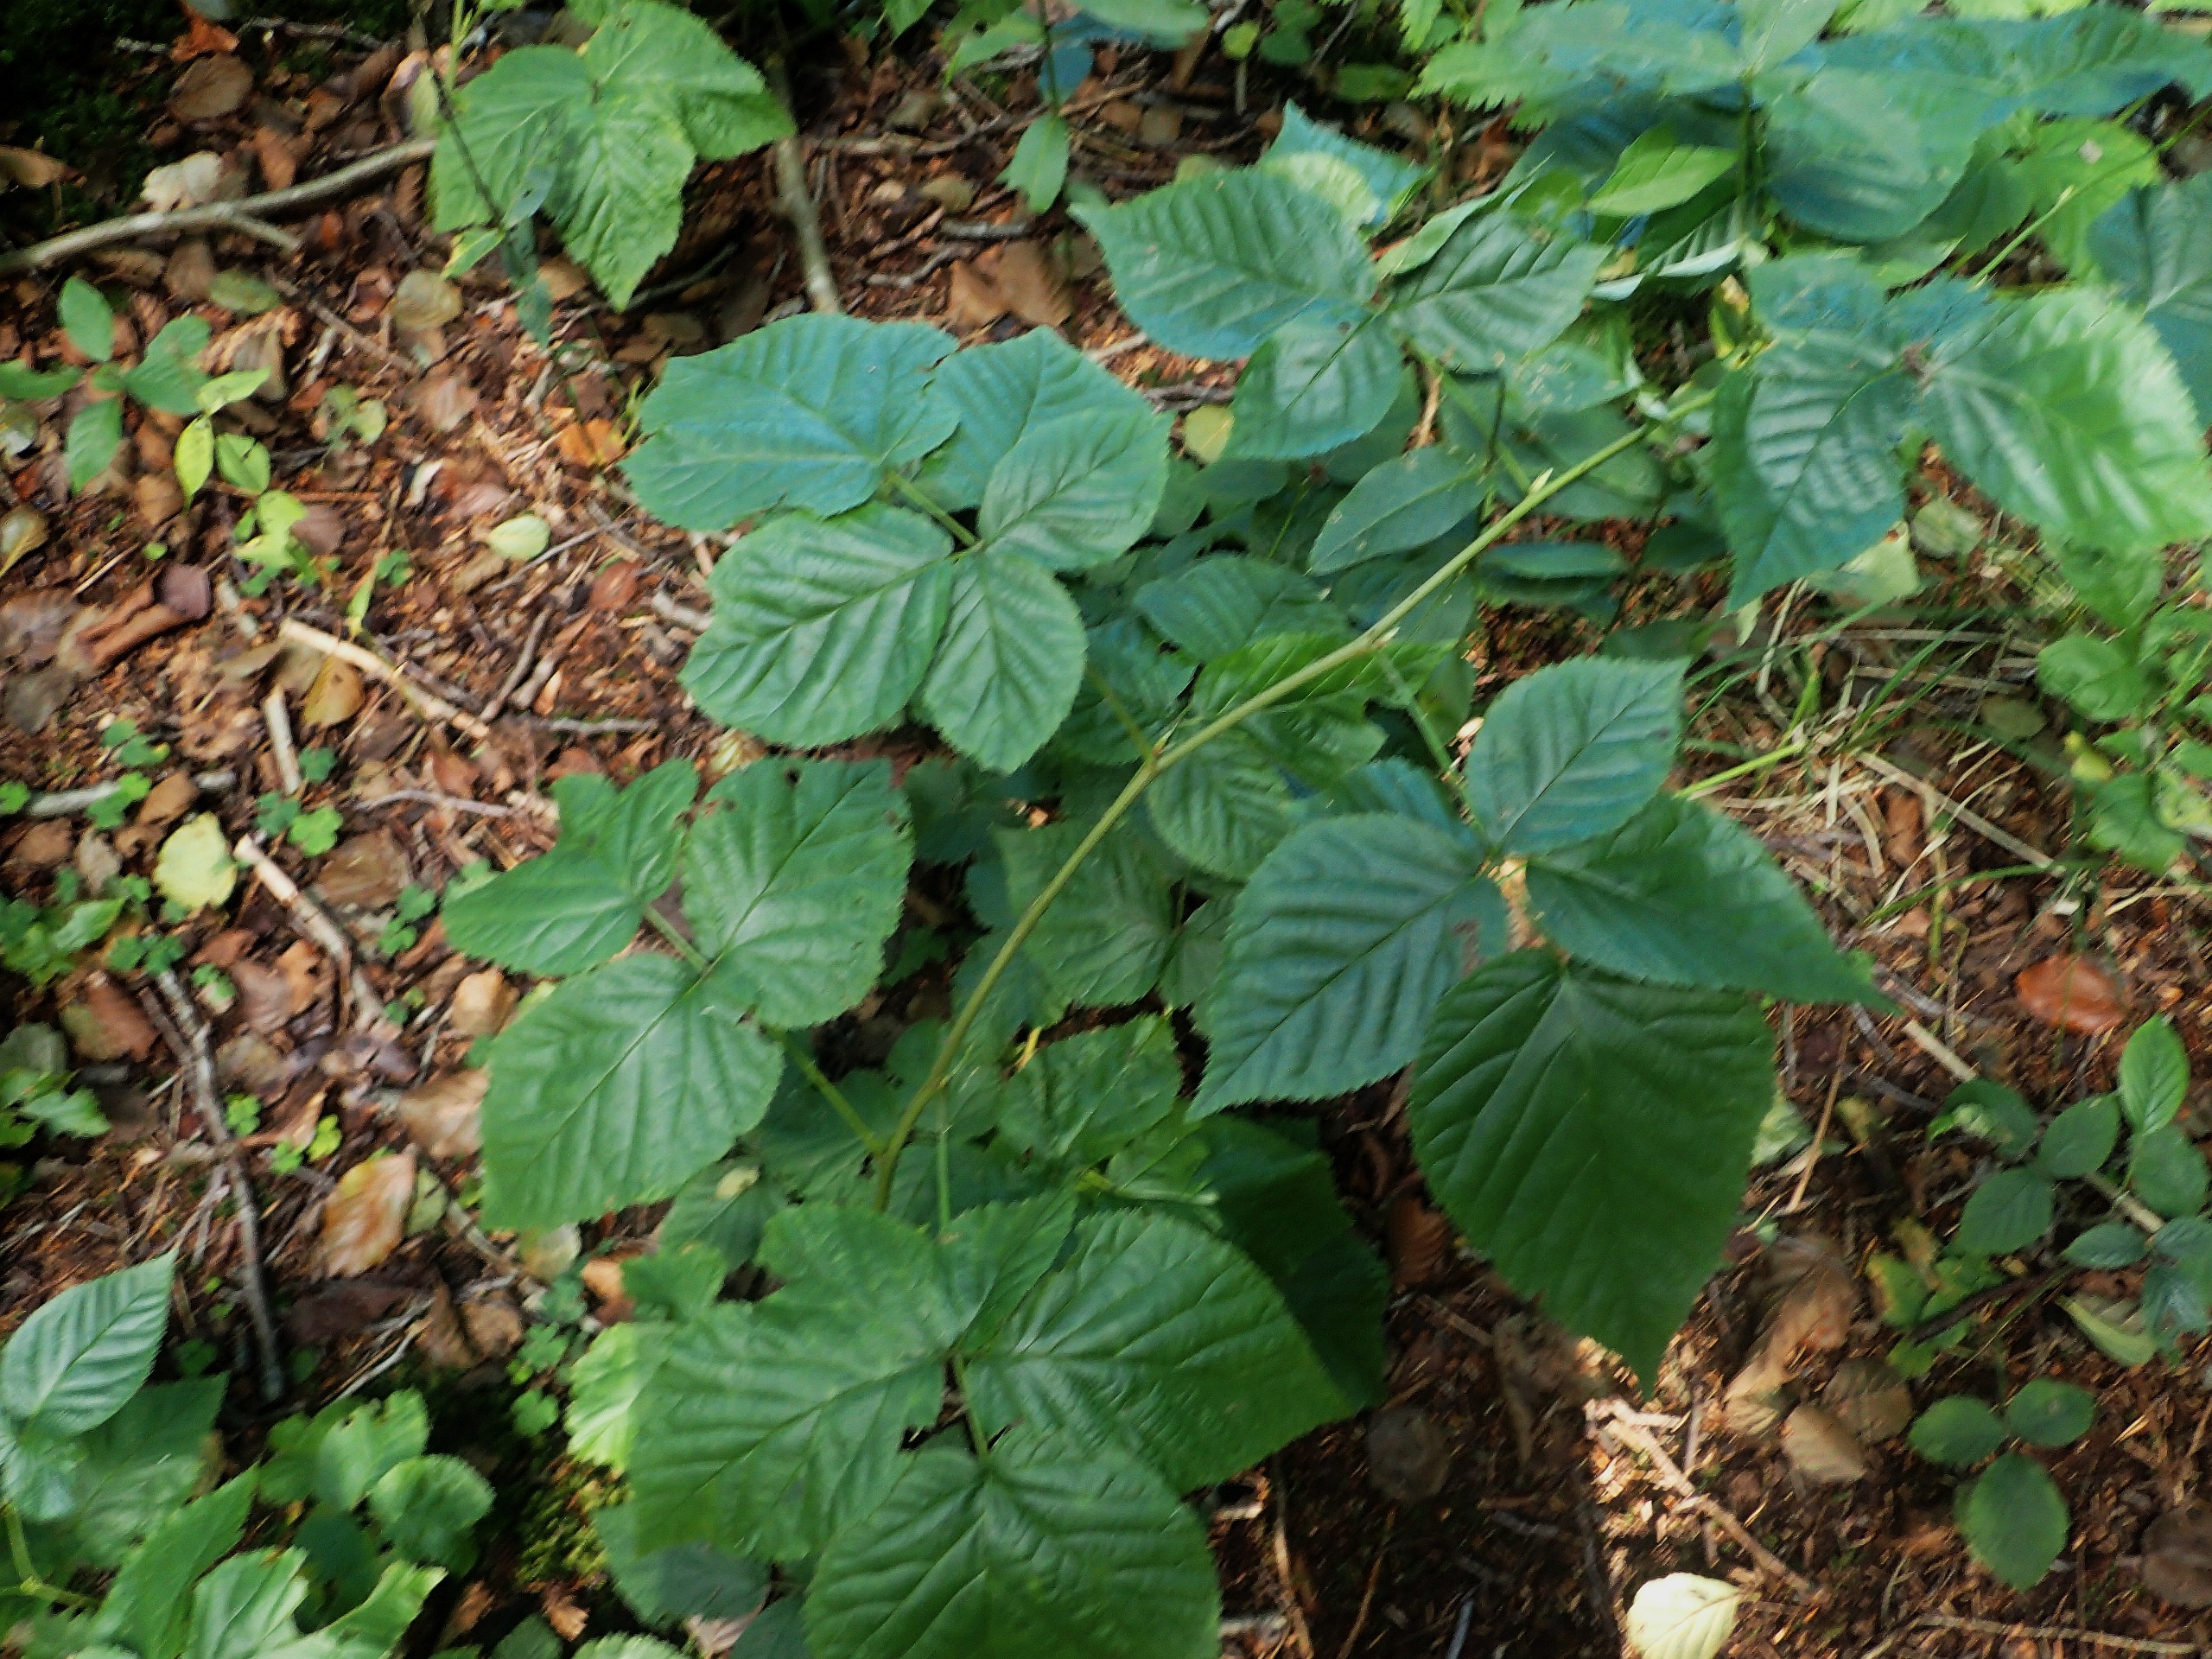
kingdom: Plantae
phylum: Tracheophyta
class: Magnoliopsida
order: Rosales
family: Rosaceae
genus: Rubus
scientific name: Rubus polonicus
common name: Skov-brombær
